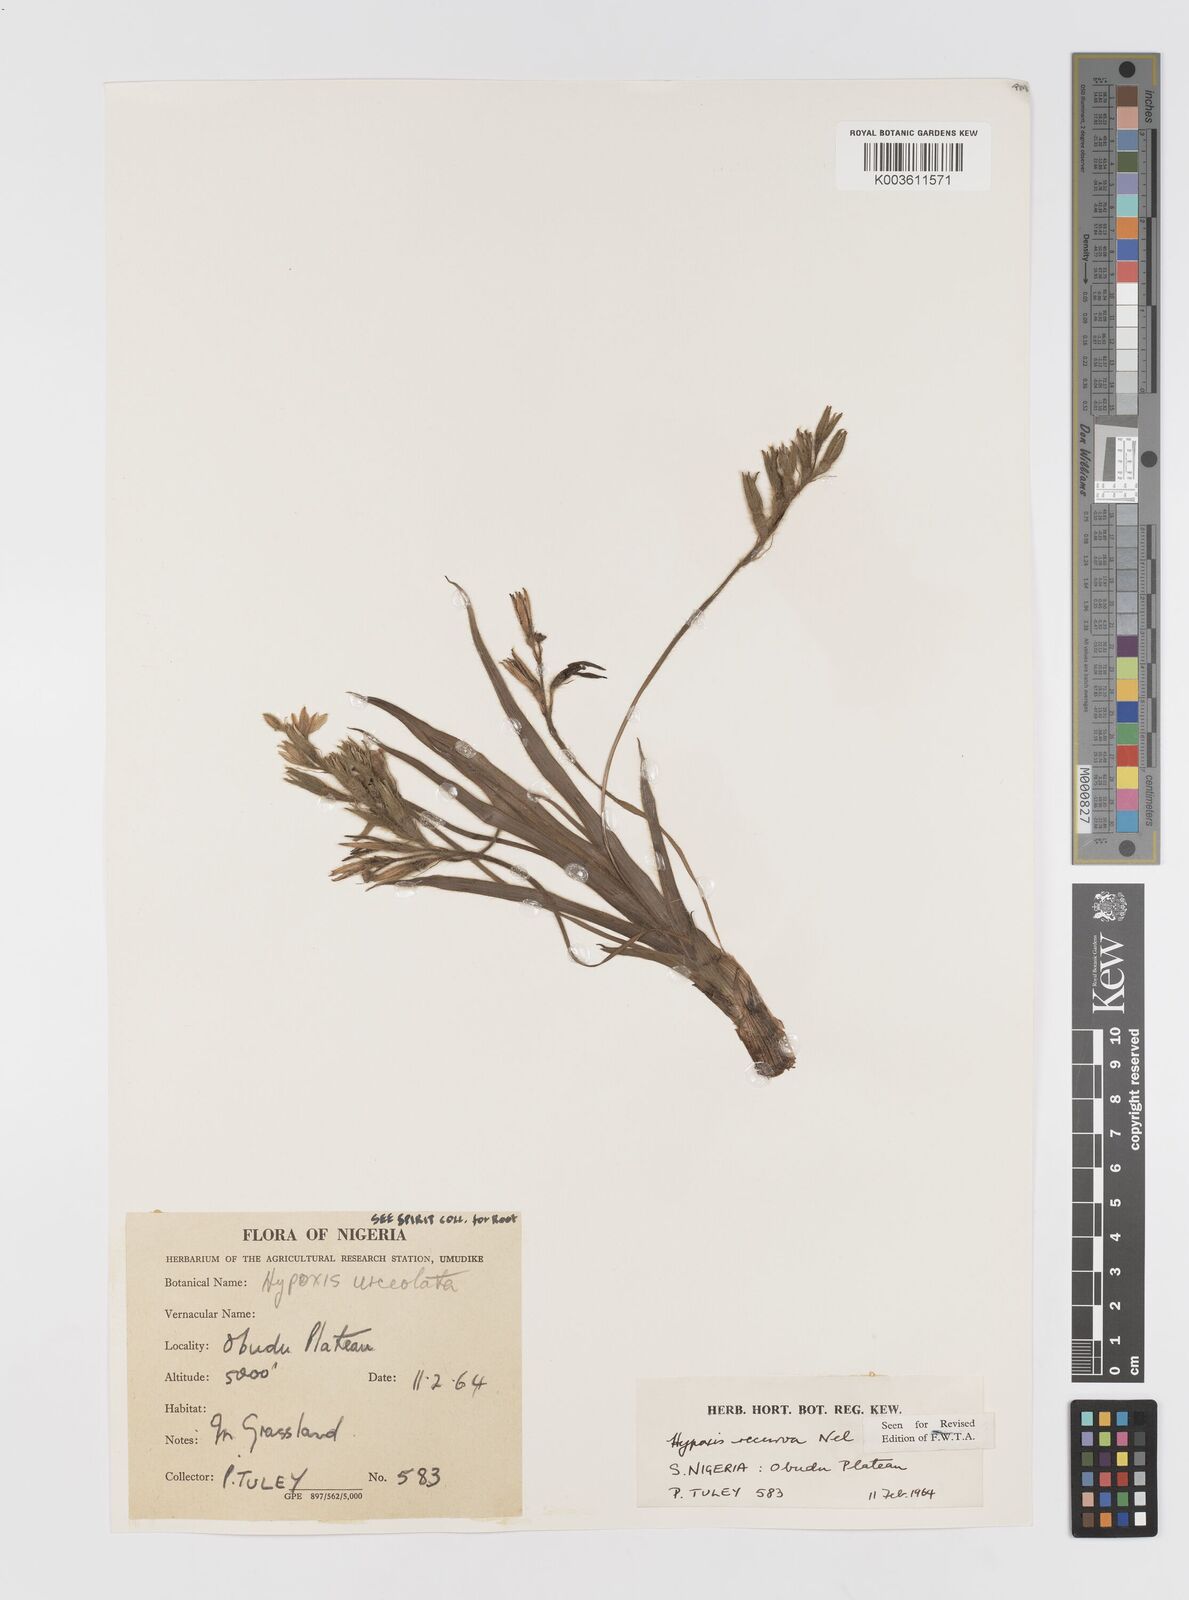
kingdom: Plantae
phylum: Tracheophyta
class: Liliopsida
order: Asparagales
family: Hypoxidaceae
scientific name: Hypoxidaceae
